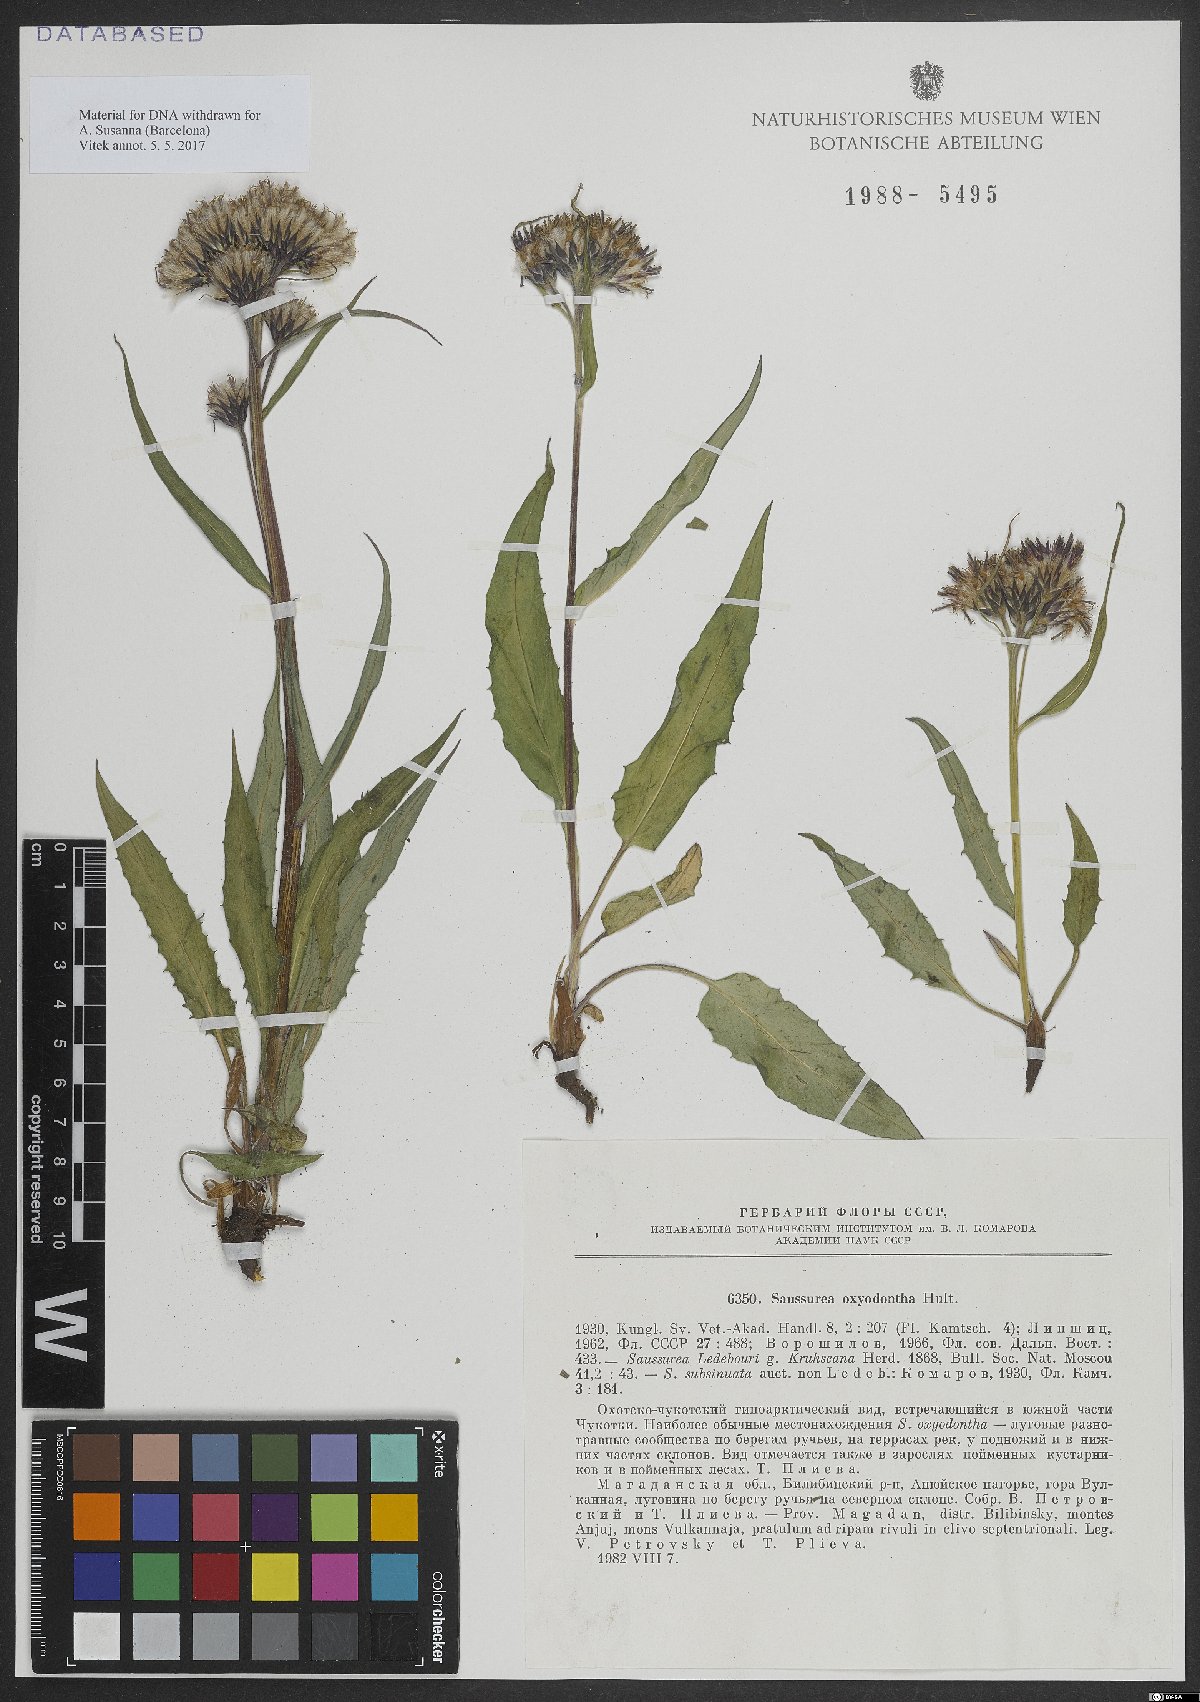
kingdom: Plantae
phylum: Tracheophyta
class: Magnoliopsida
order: Asterales
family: Asteraceae
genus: Saussurea
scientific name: Saussurea nuda
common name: Chaffless saw-wort
